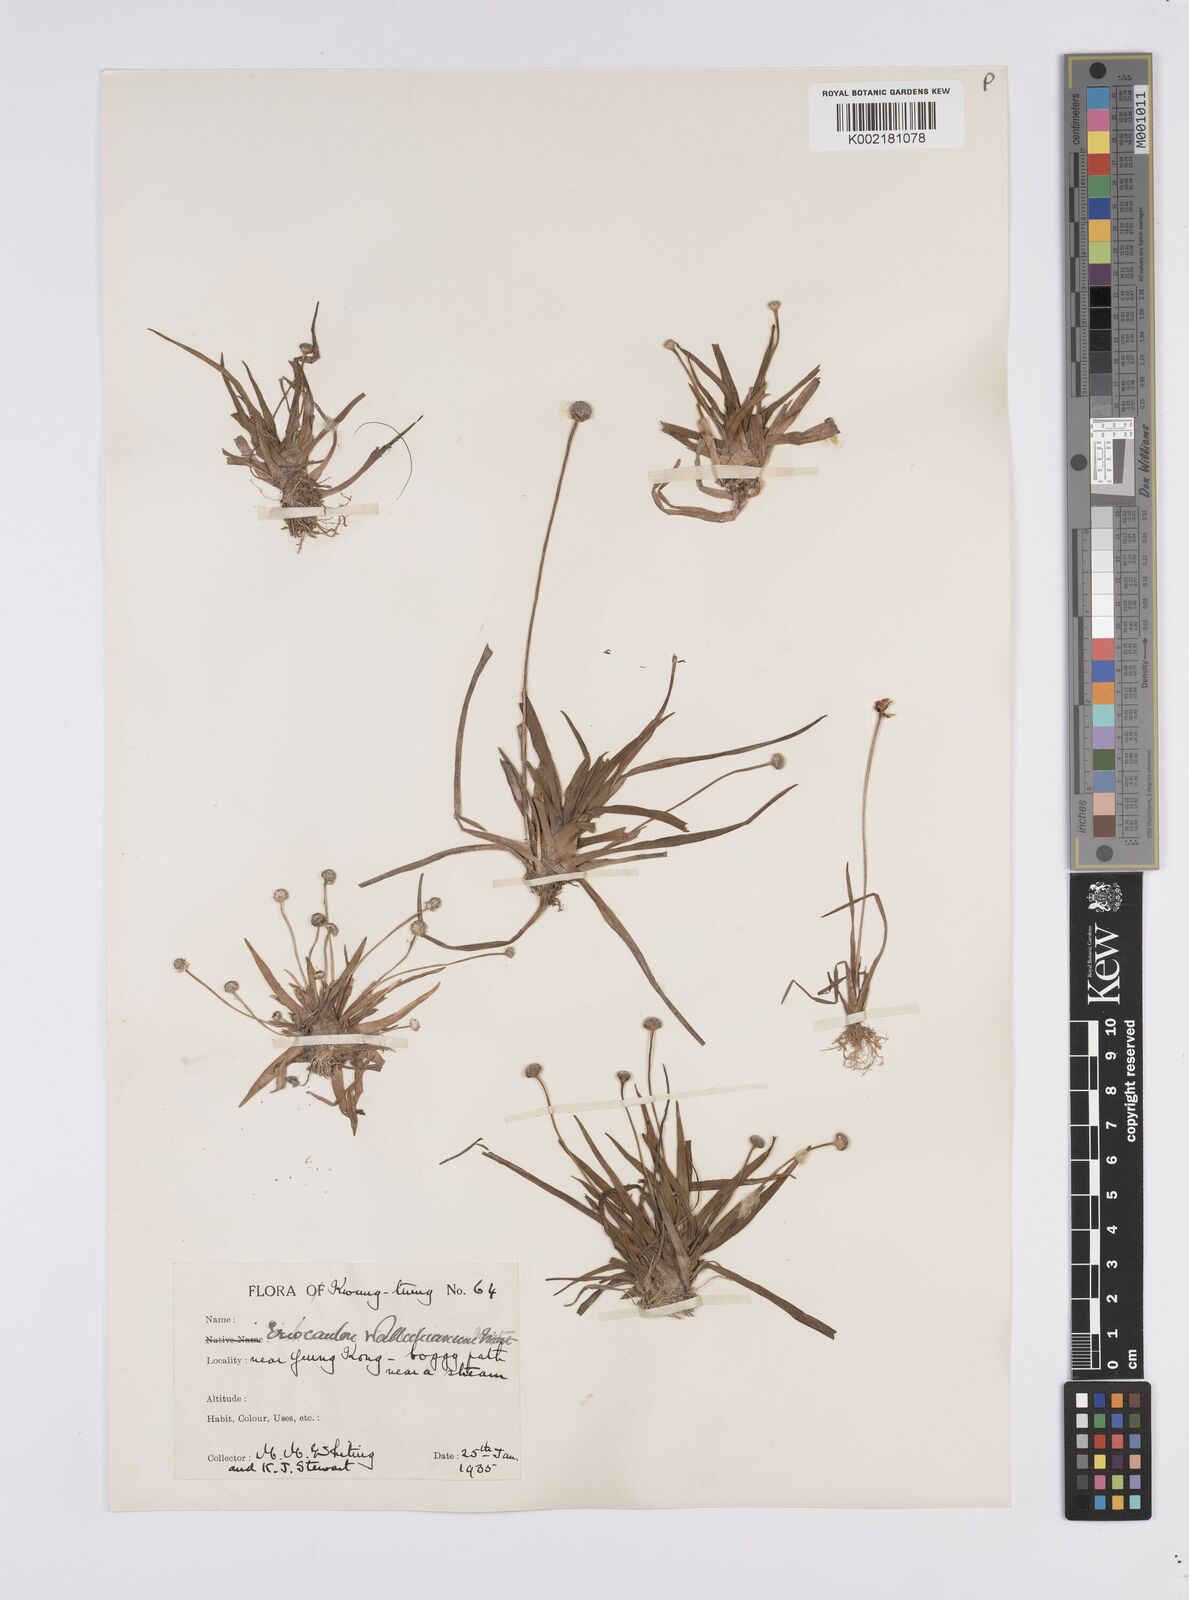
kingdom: Plantae
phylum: Tracheophyta
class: Liliopsida
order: Poales
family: Eriocaulaceae
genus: Eriocaulon
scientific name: Eriocaulon sexangulare
